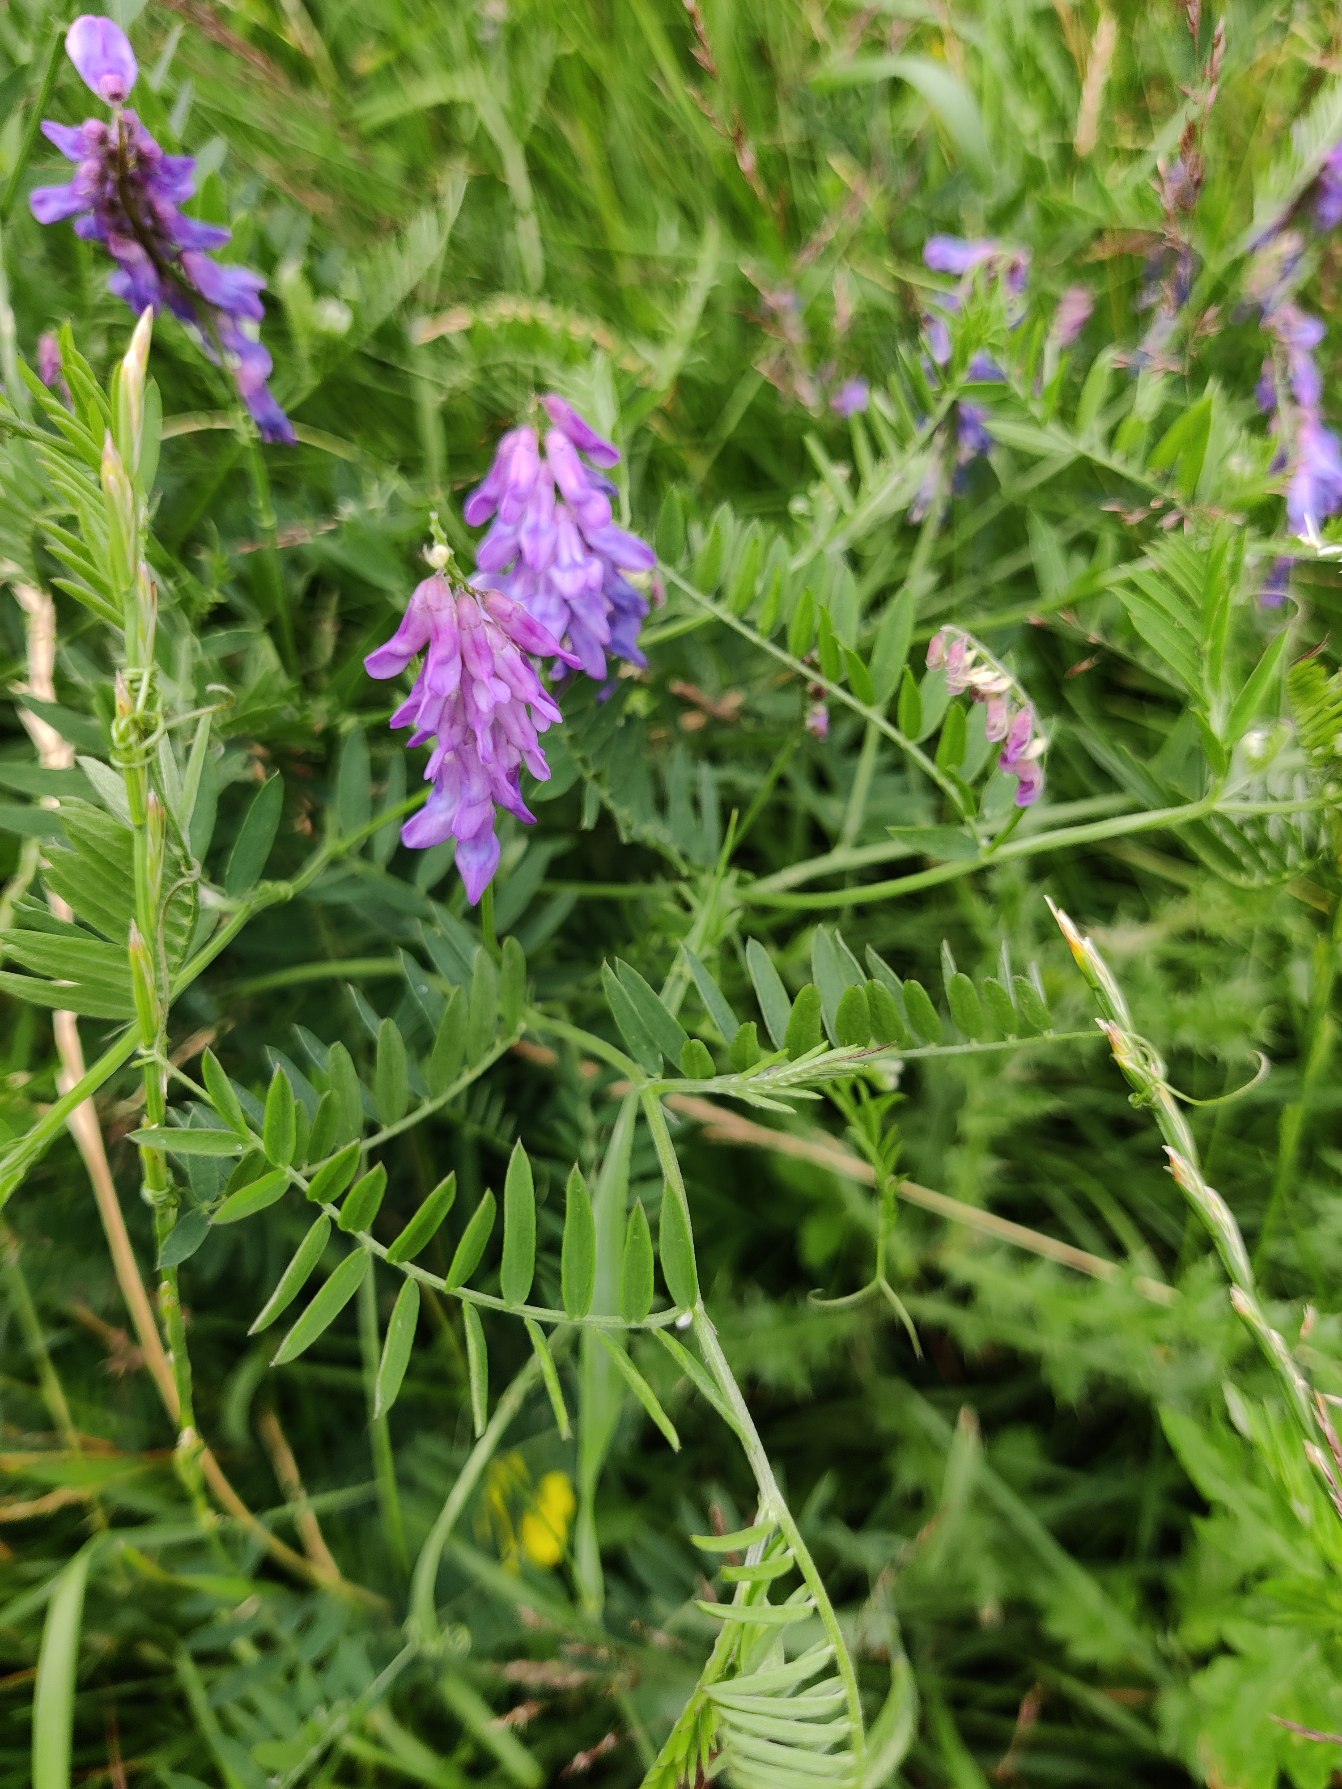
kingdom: Plantae
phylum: Tracheophyta
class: Magnoliopsida
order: Fabales
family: Fabaceae
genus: Vicia
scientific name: Vicia cracca
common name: Muse-vikke
